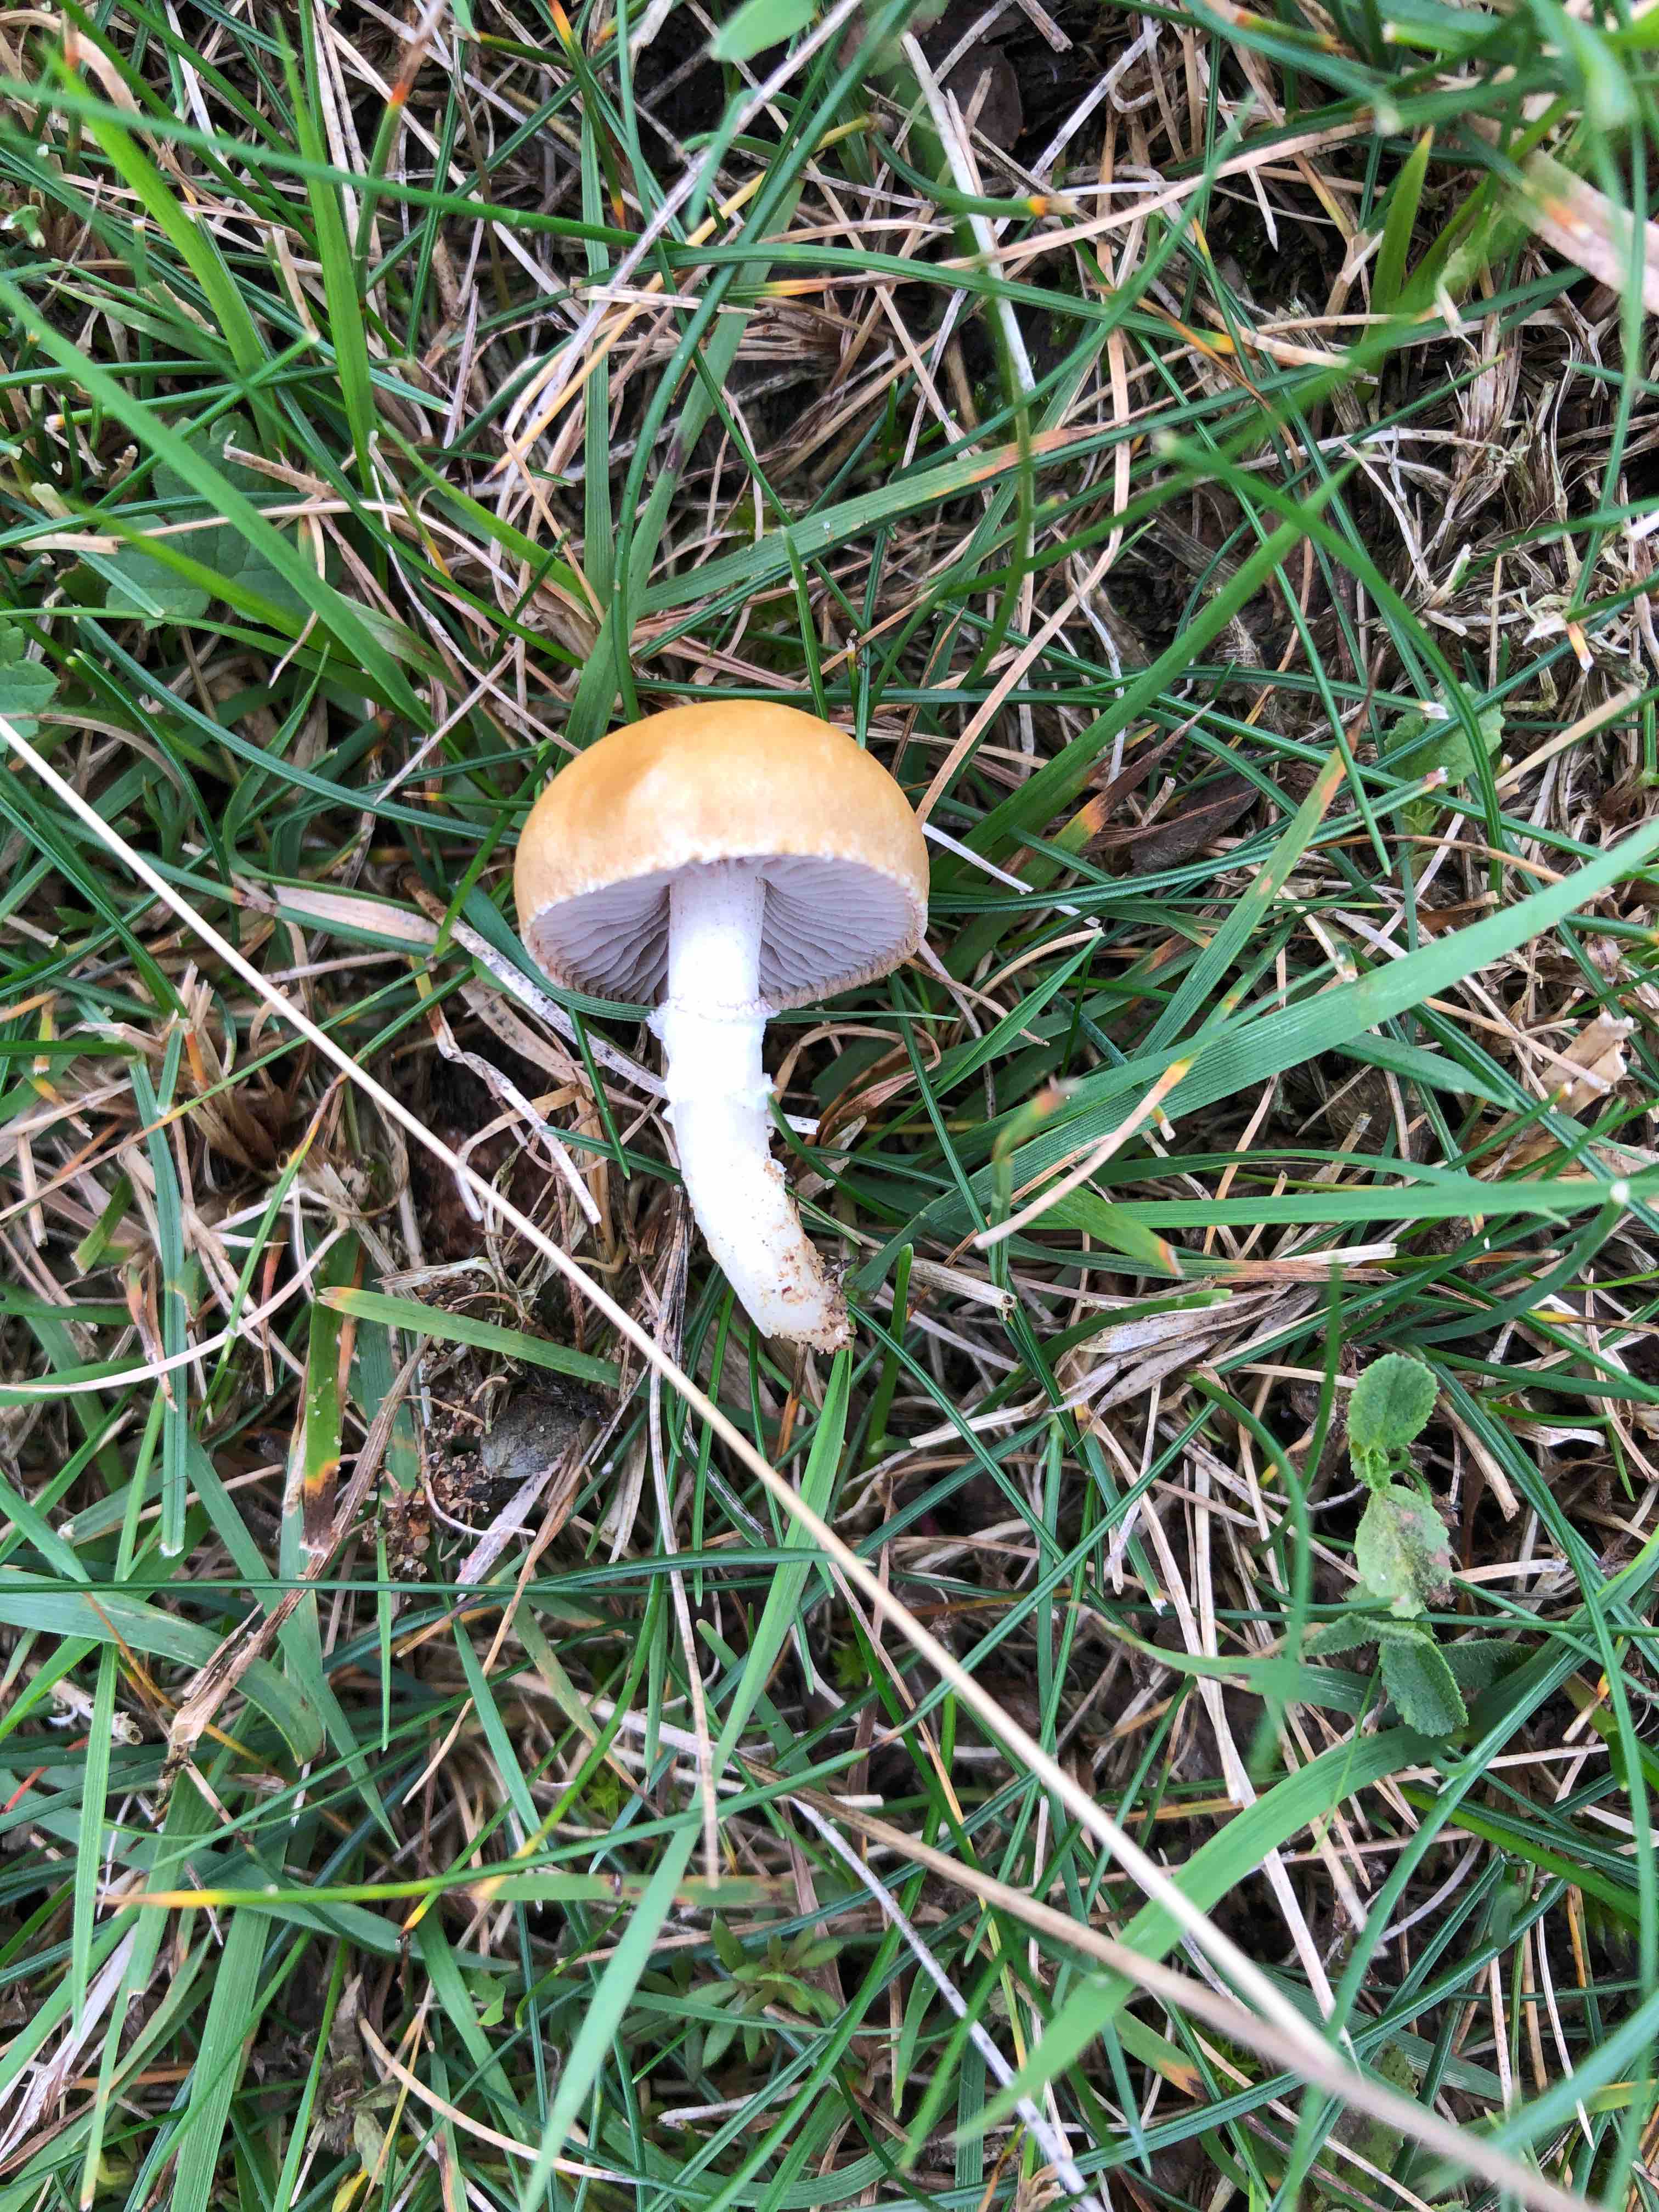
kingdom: Fungi
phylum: Basidiomycota
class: Agaricomycetes
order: Agaricales
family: Hymenogastraceae
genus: Psilocybe
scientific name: Psilocybe coronilla
